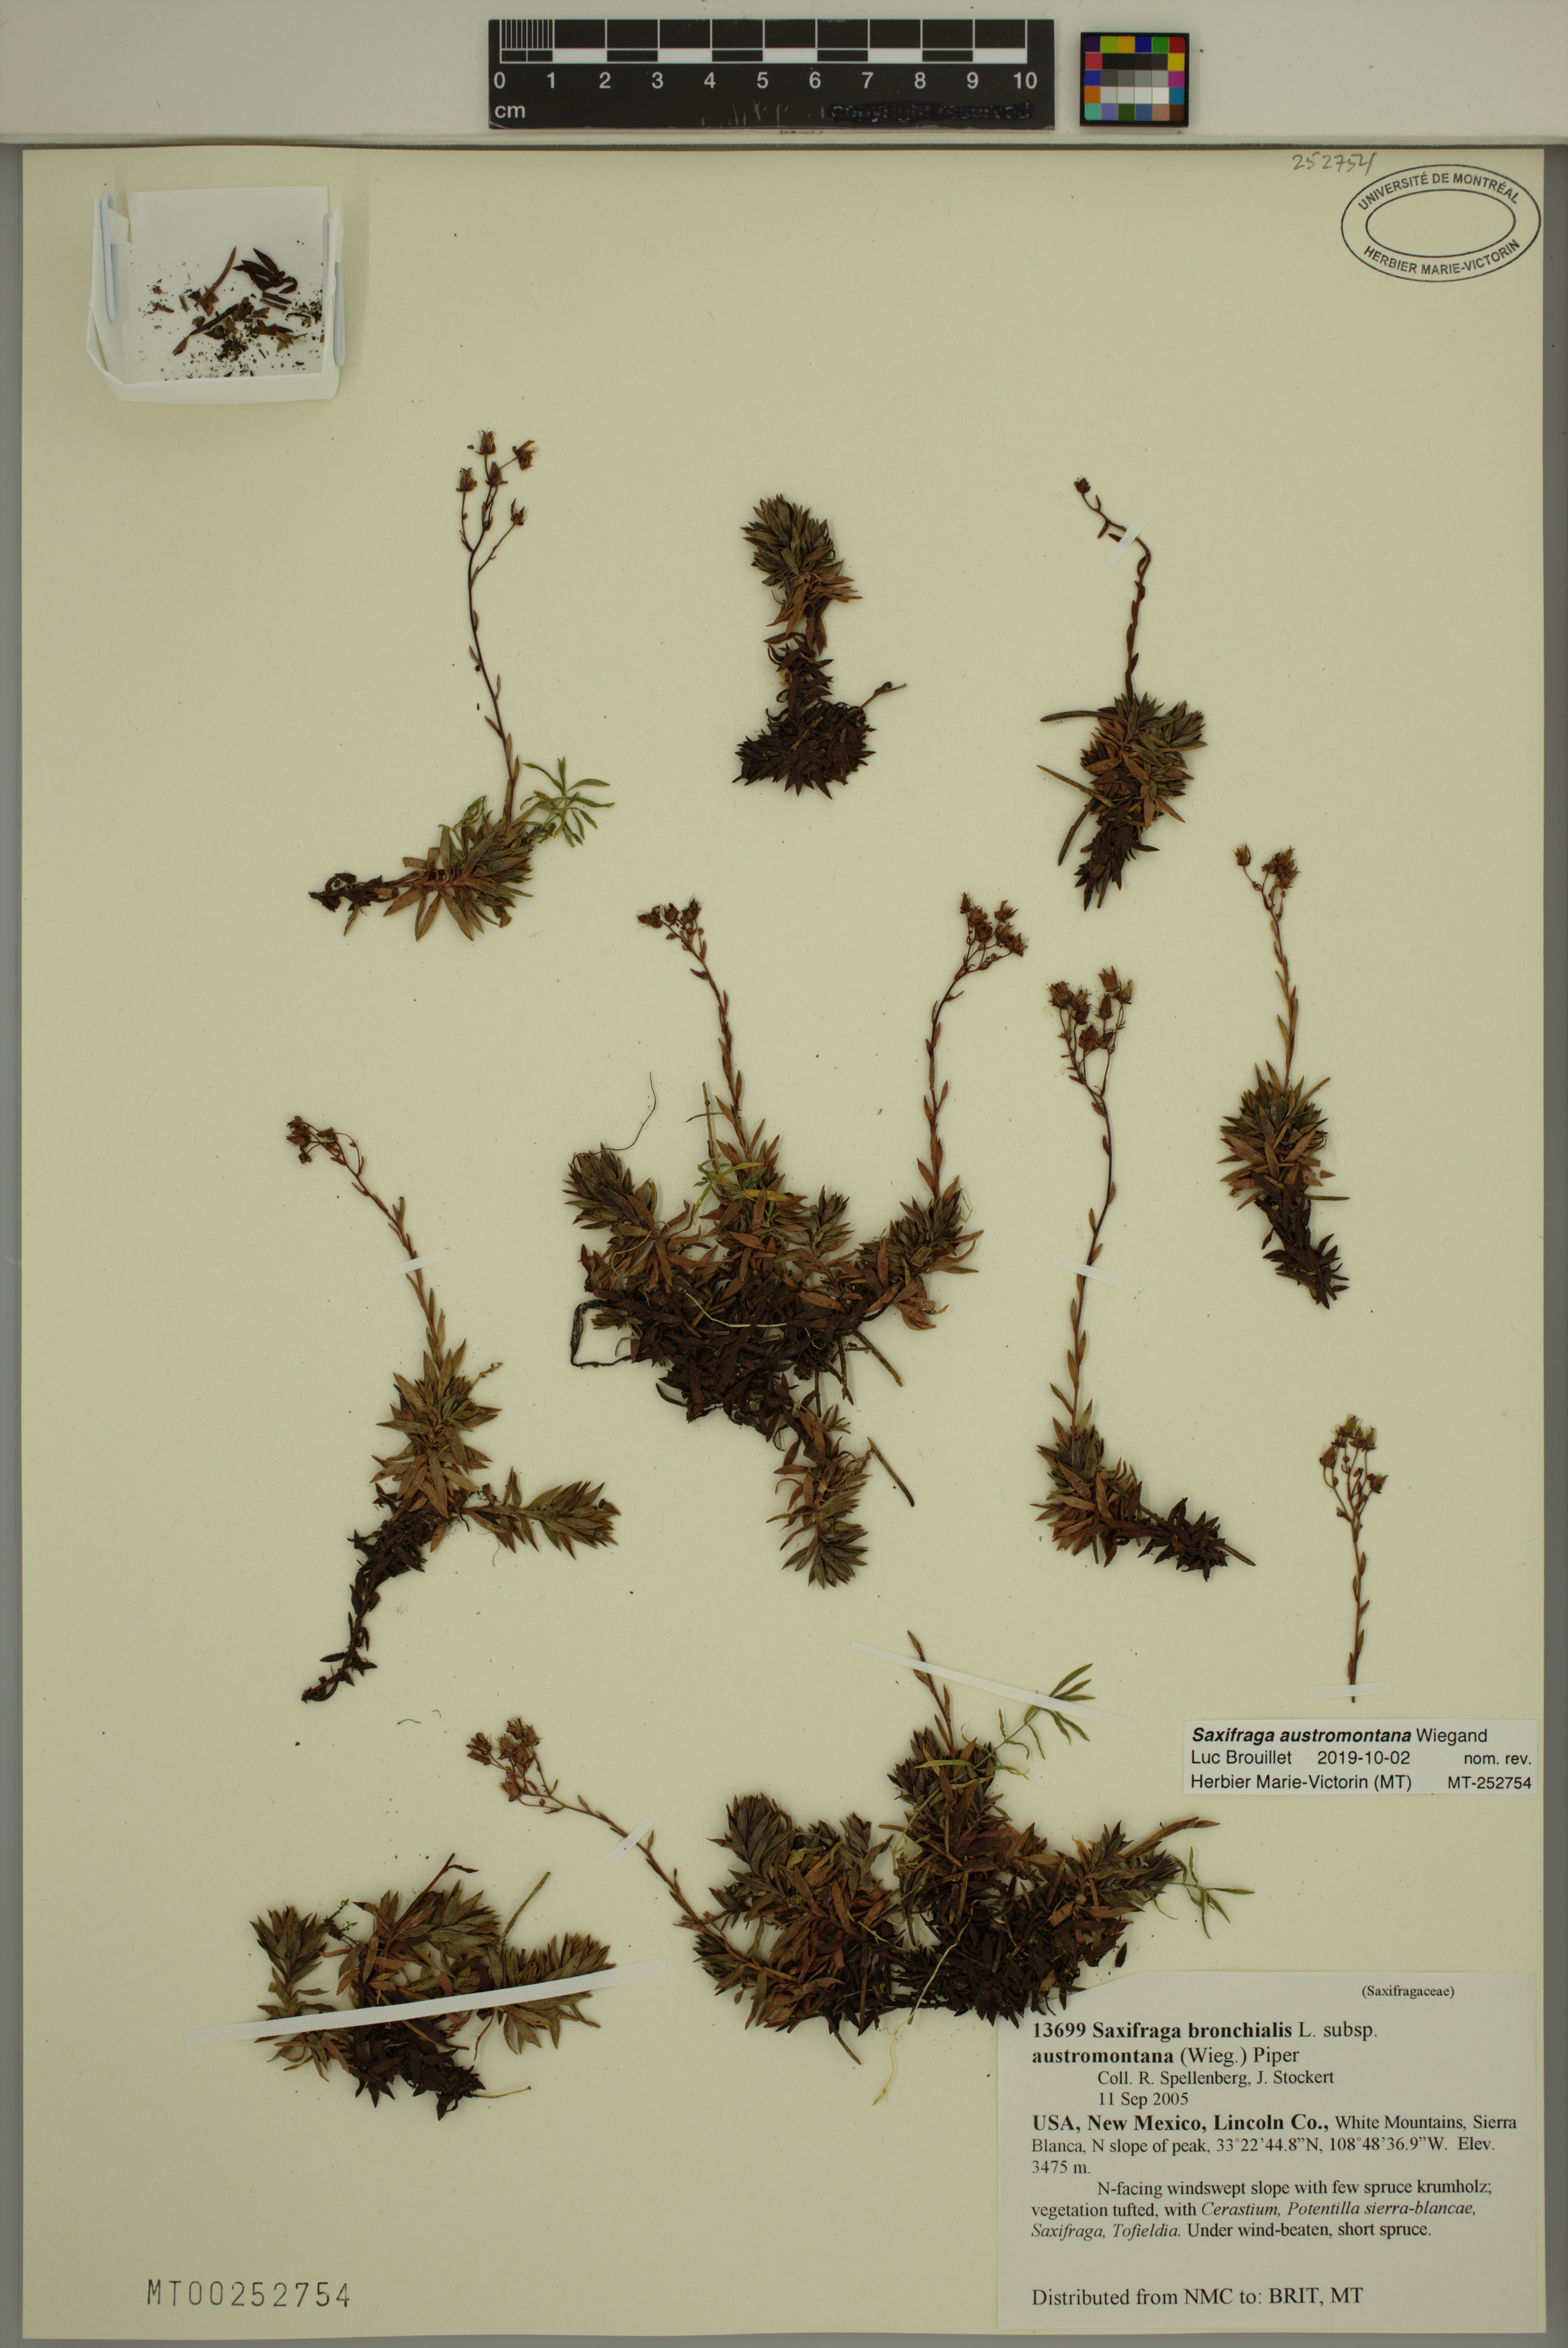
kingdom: Plantae
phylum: Tracheophyta
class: Magnoliopsida
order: Saxifragales
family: Saxifragaceae
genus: Saxifraga
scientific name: Saxifraga bronchialis
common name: Matted saxifrage
